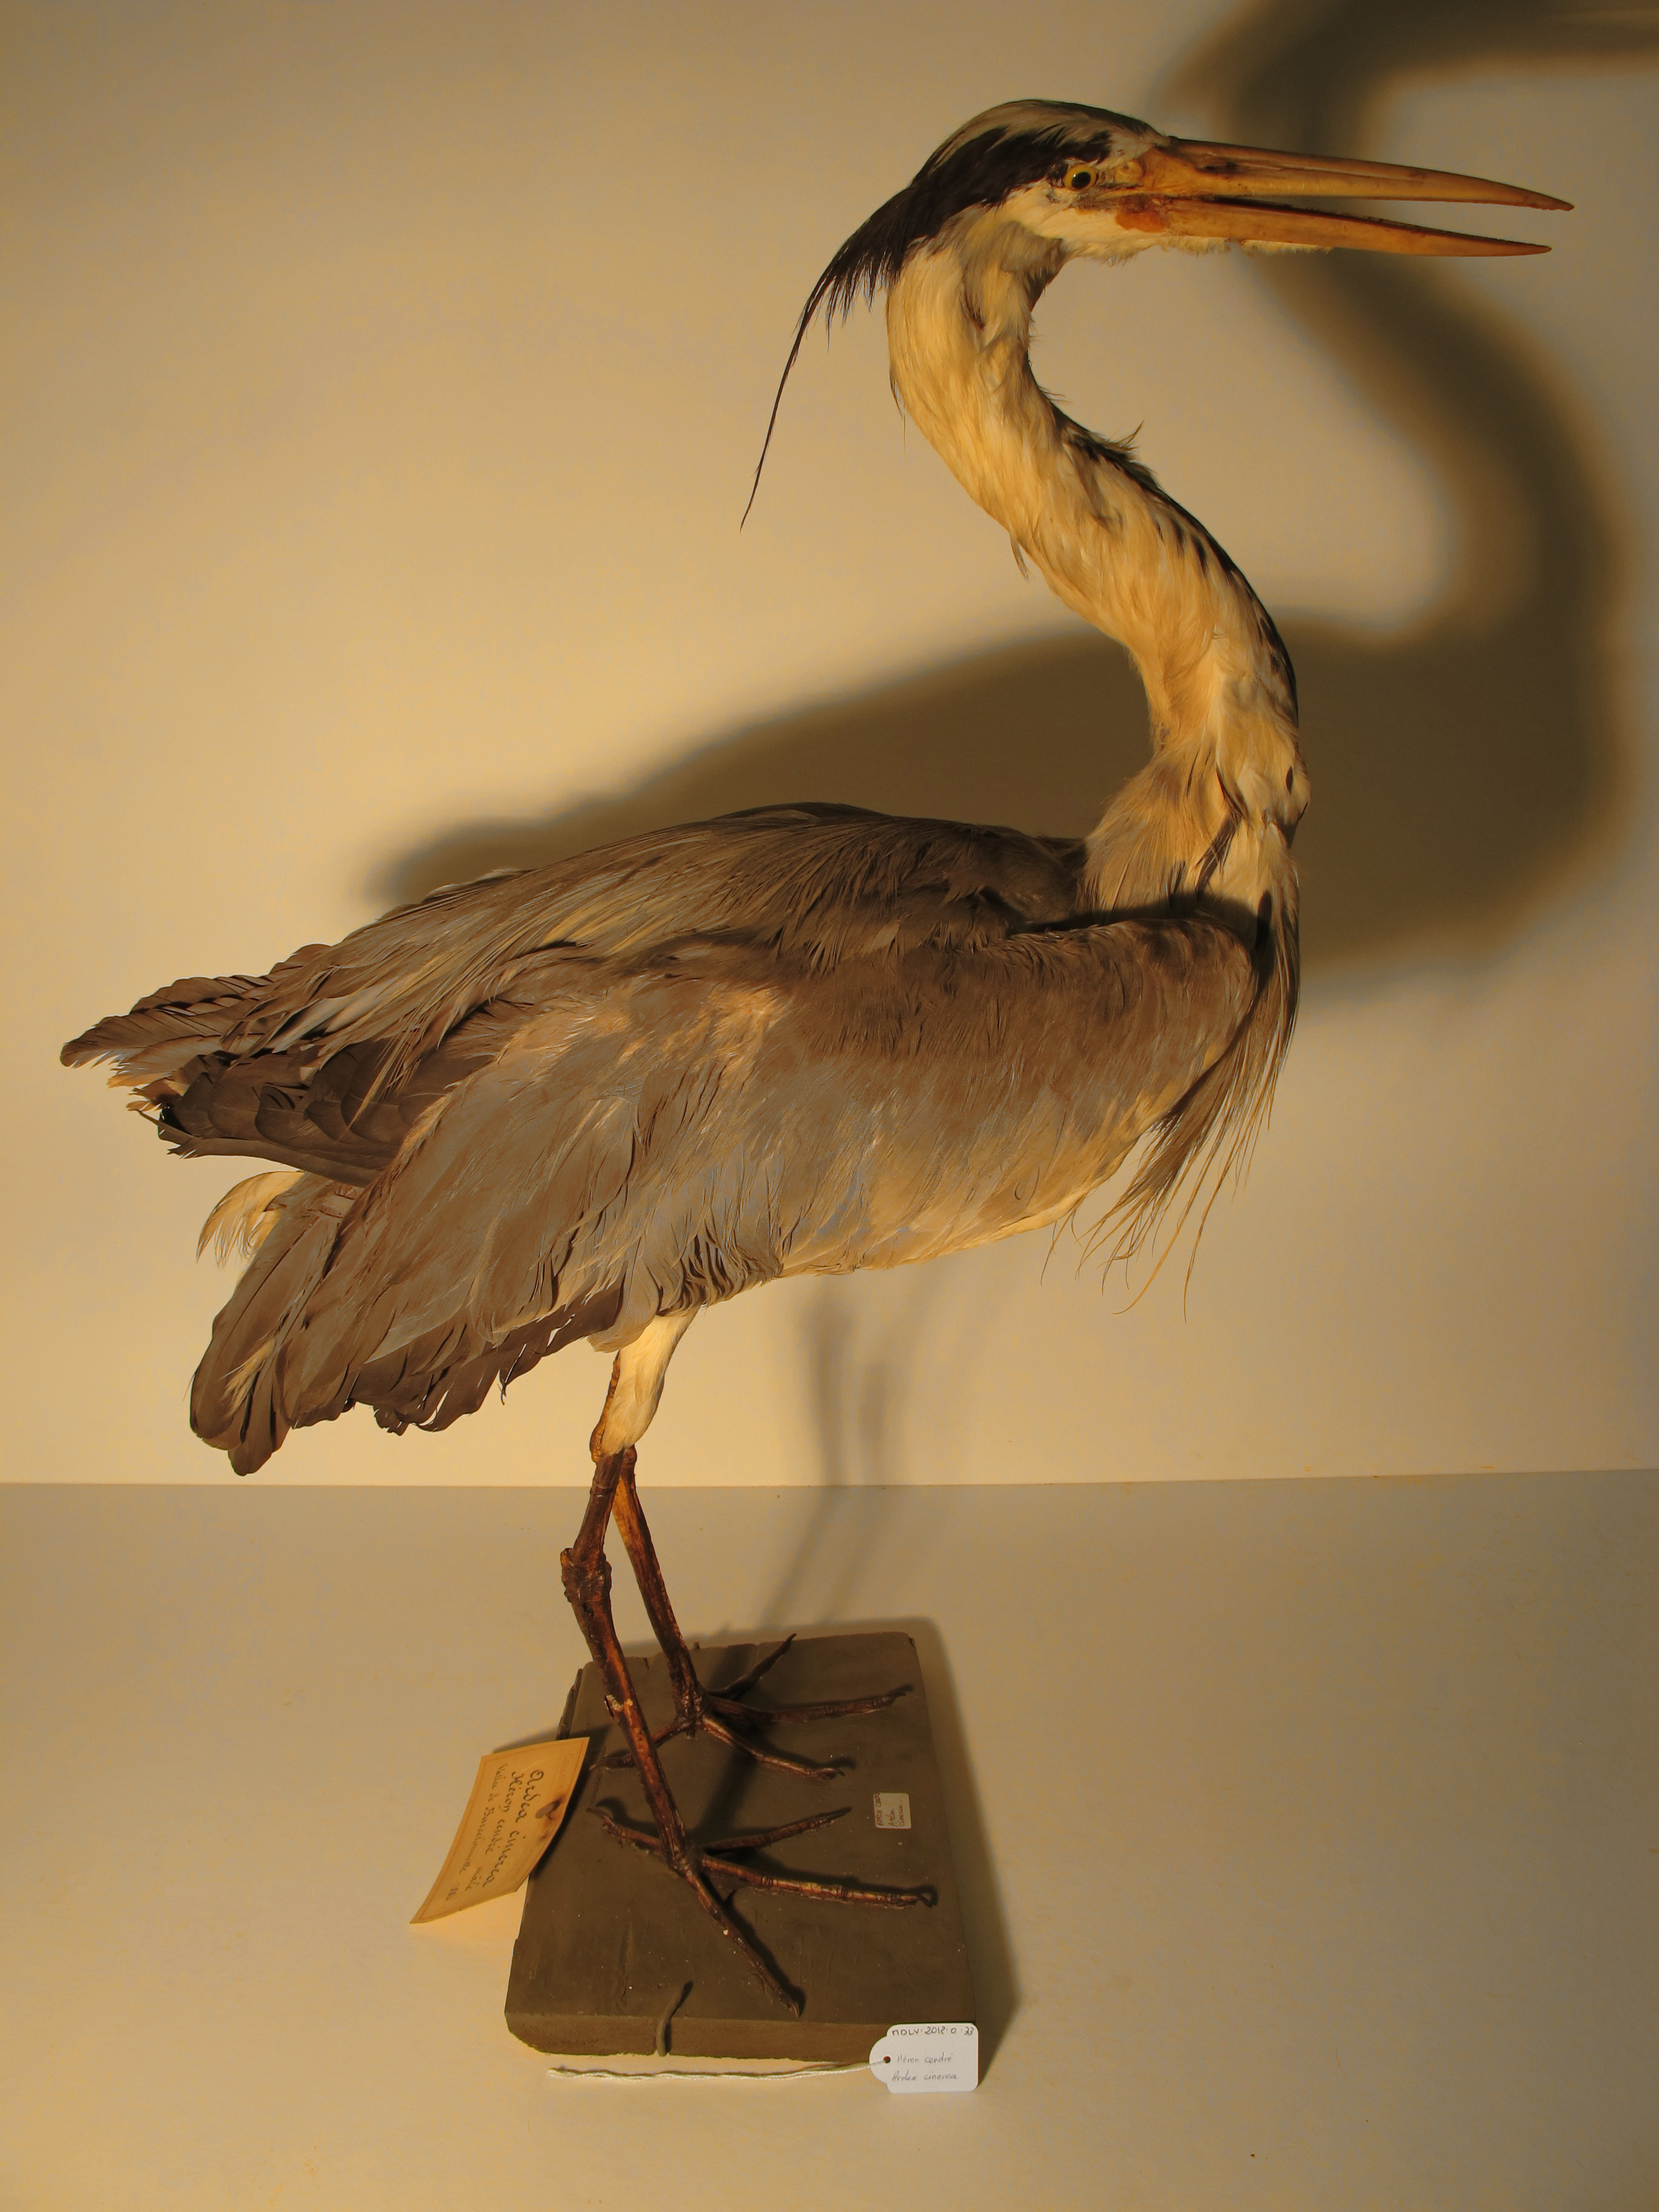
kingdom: Animalia
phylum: Chordata
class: Aves
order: Pelecaniformes
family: Ardeidae
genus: Ardea
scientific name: Ardea cinerea
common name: Grey Heron
